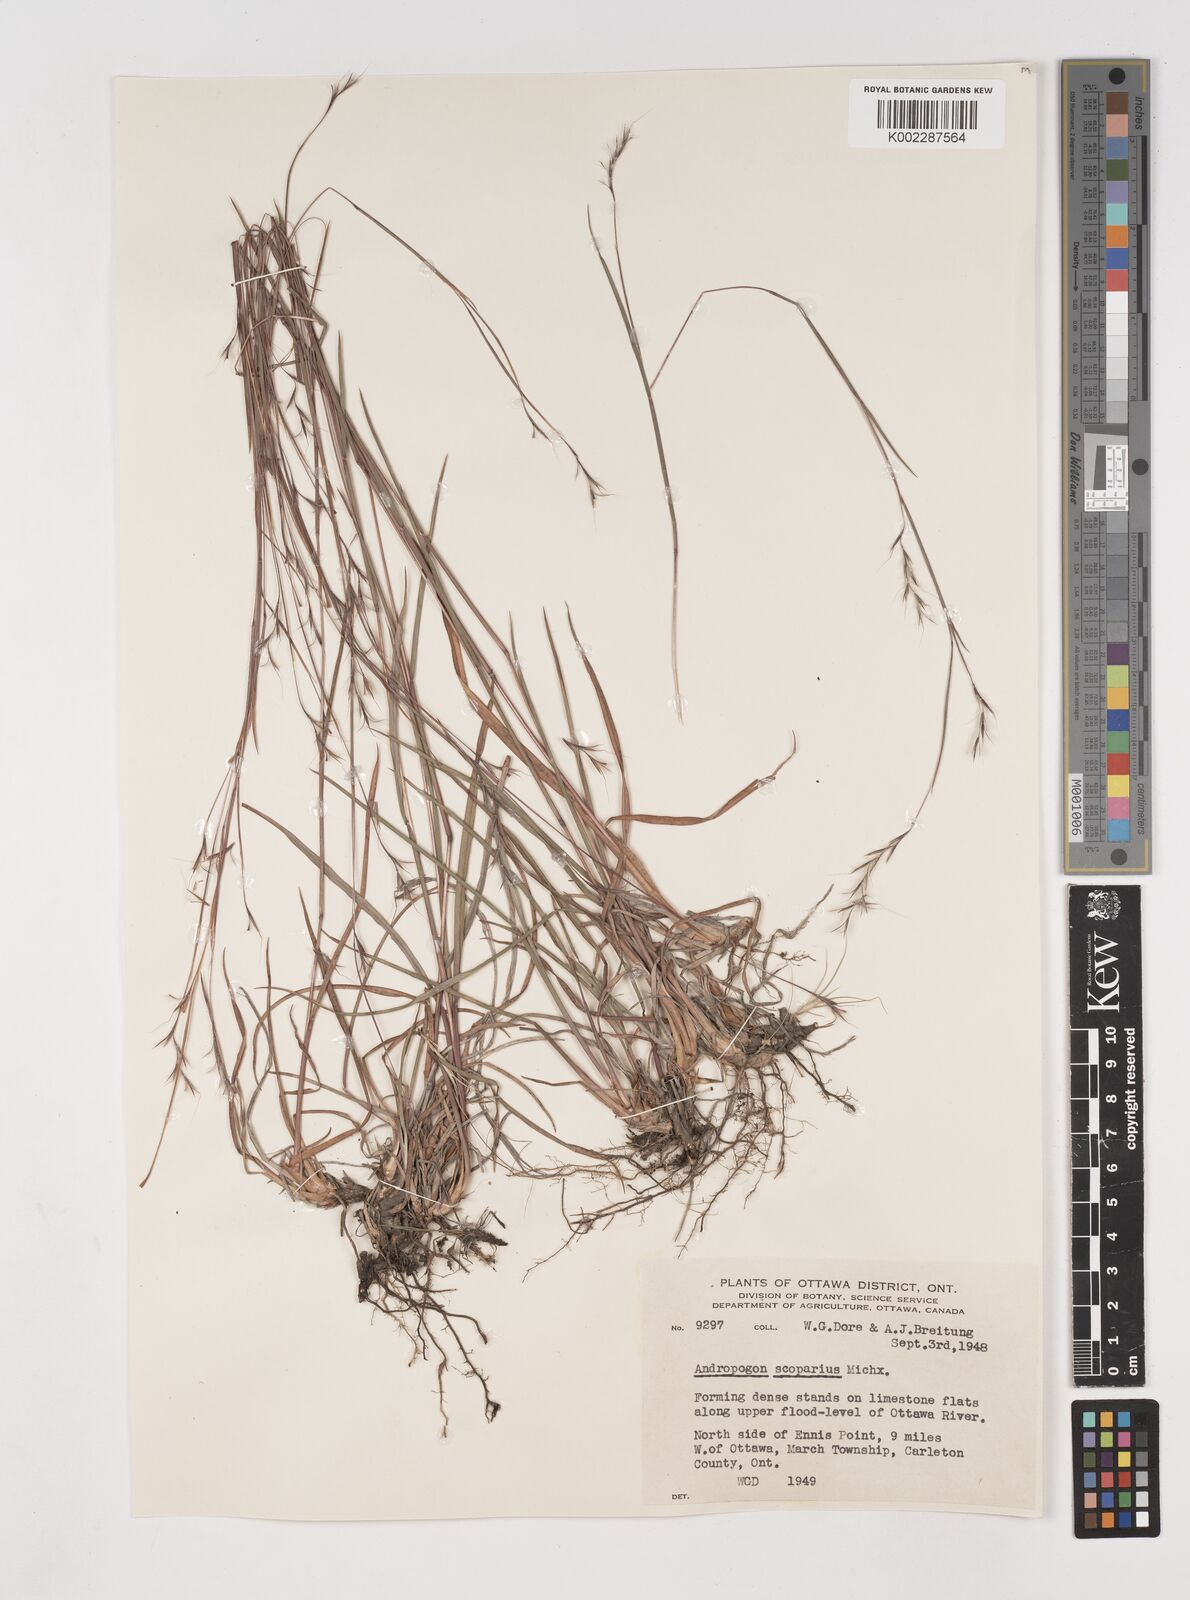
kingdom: Plantae
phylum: Tracheophyta
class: Liliopsida
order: Poales
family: Poaceae
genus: Schizachyrium
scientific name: Schizachyrium scoparium
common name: Little bluestem
